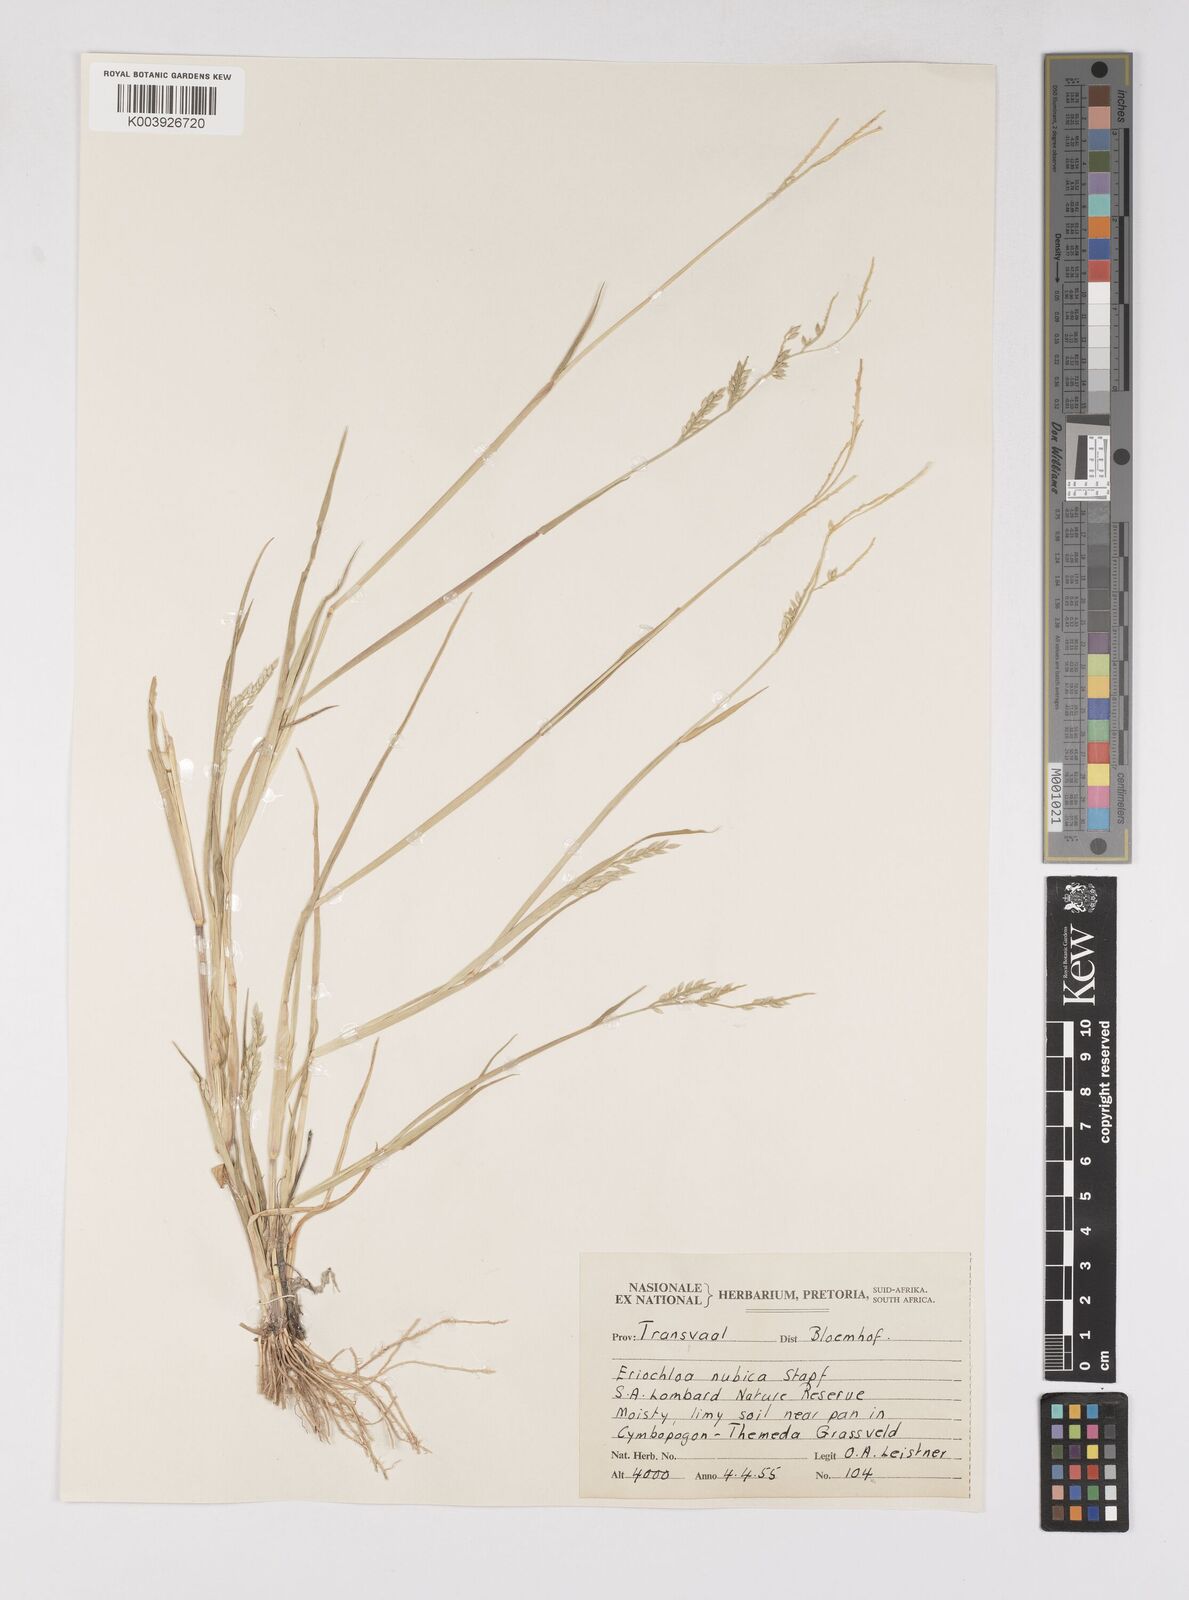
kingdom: Plantae
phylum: Tracheophyta
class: Liliopsida
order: Poales
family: Poaceae
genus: Eriochloa
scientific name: Eriochloa barbatus
